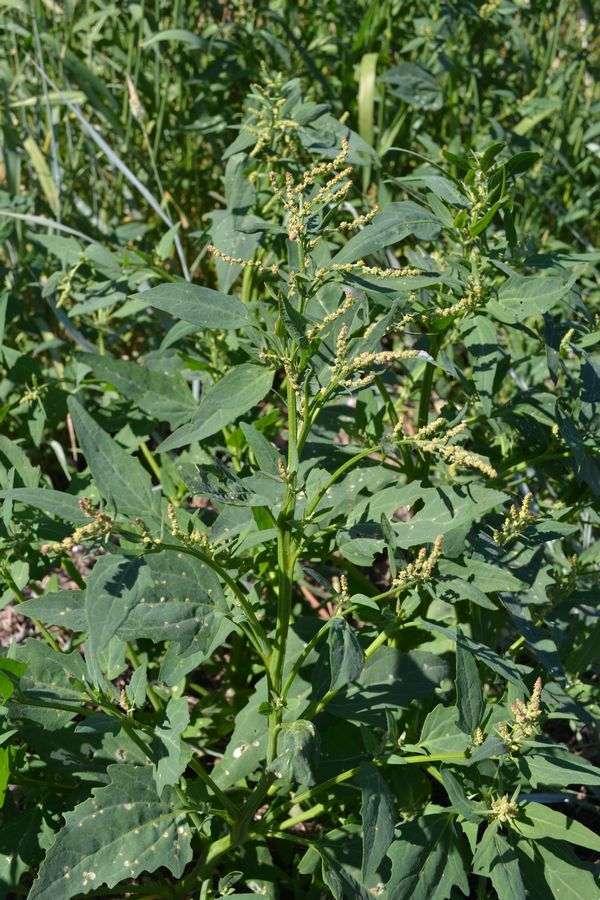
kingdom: Plantae
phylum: Tracheophyta
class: Magnoliopsida
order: Caryophyllales
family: Amaranthaceae
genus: Atriplex
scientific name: Atriplex nudicaulis
